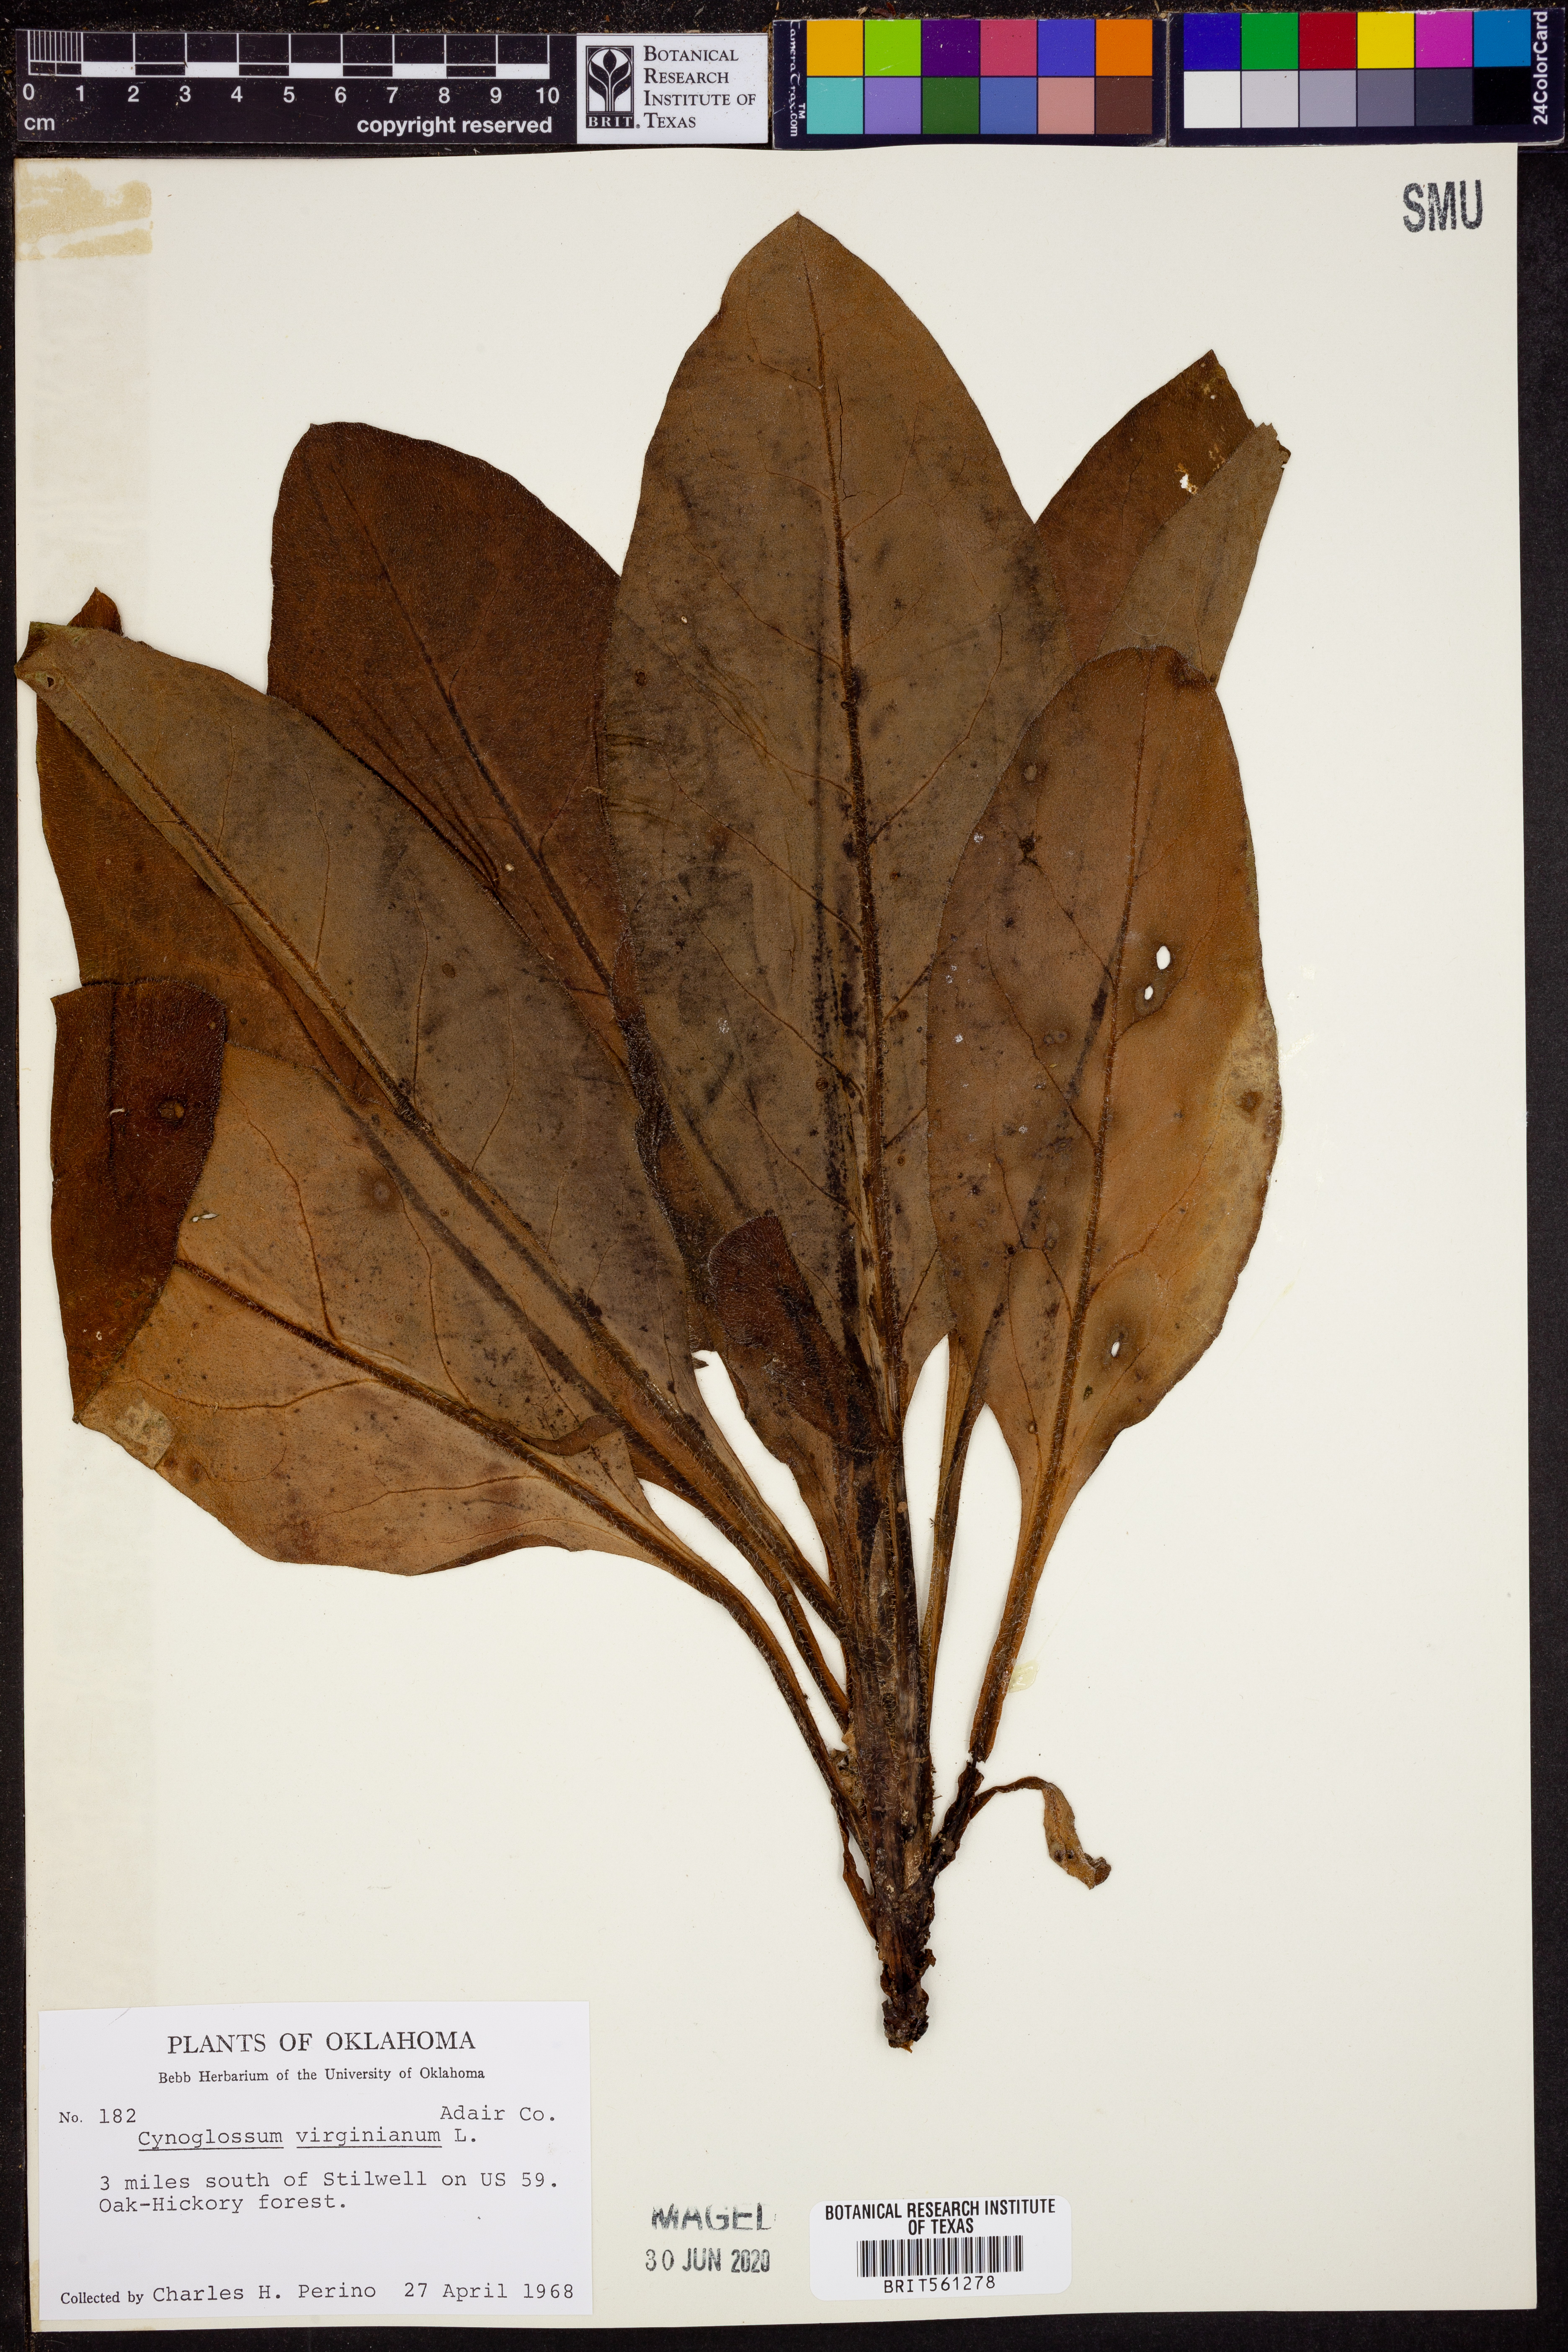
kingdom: Plantae
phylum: Tracheophyta
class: Magnoliopsida
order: Boraginales
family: Boraginaceae
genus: Andersonglossum
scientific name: Andersonglossum virginianum
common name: Wild comfrey
